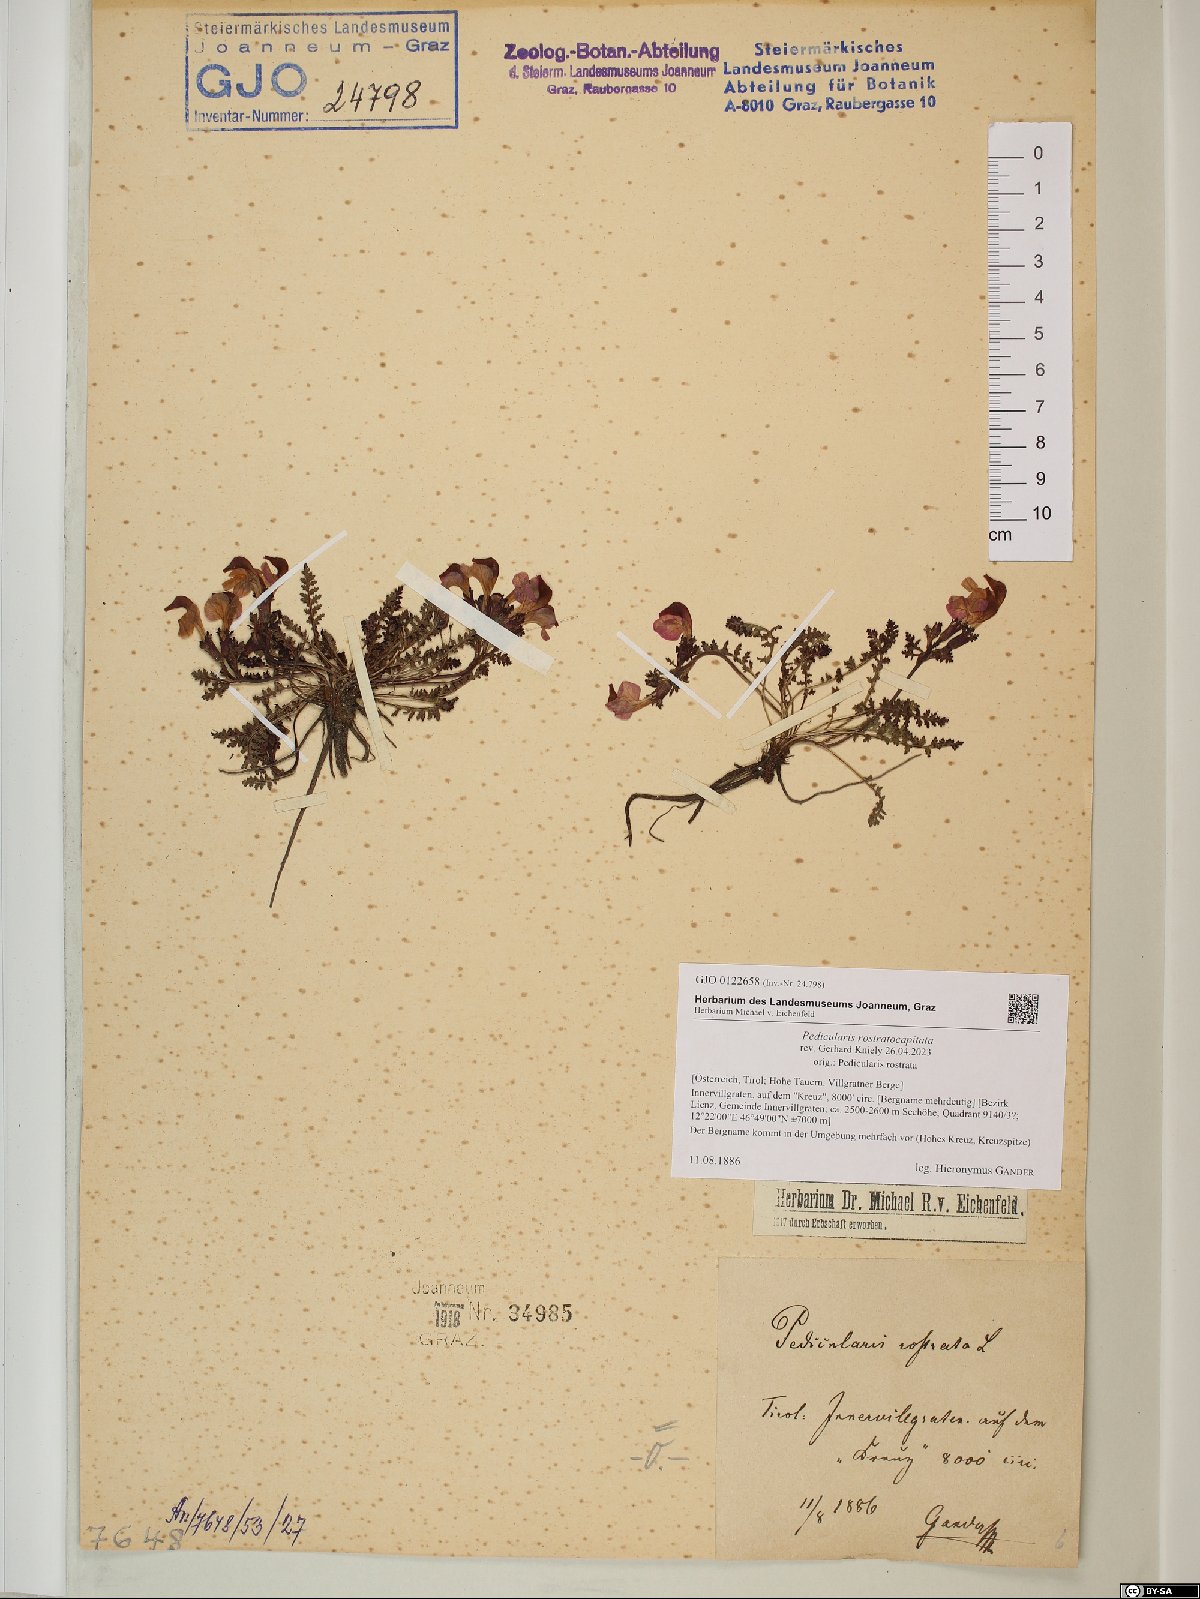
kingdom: Plantae
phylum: Tracheophyta
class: Magnoliopsida
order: Lamiales
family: Orobanchaceae
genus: Pedicularis
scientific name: Pedicularis rostratocapitata
